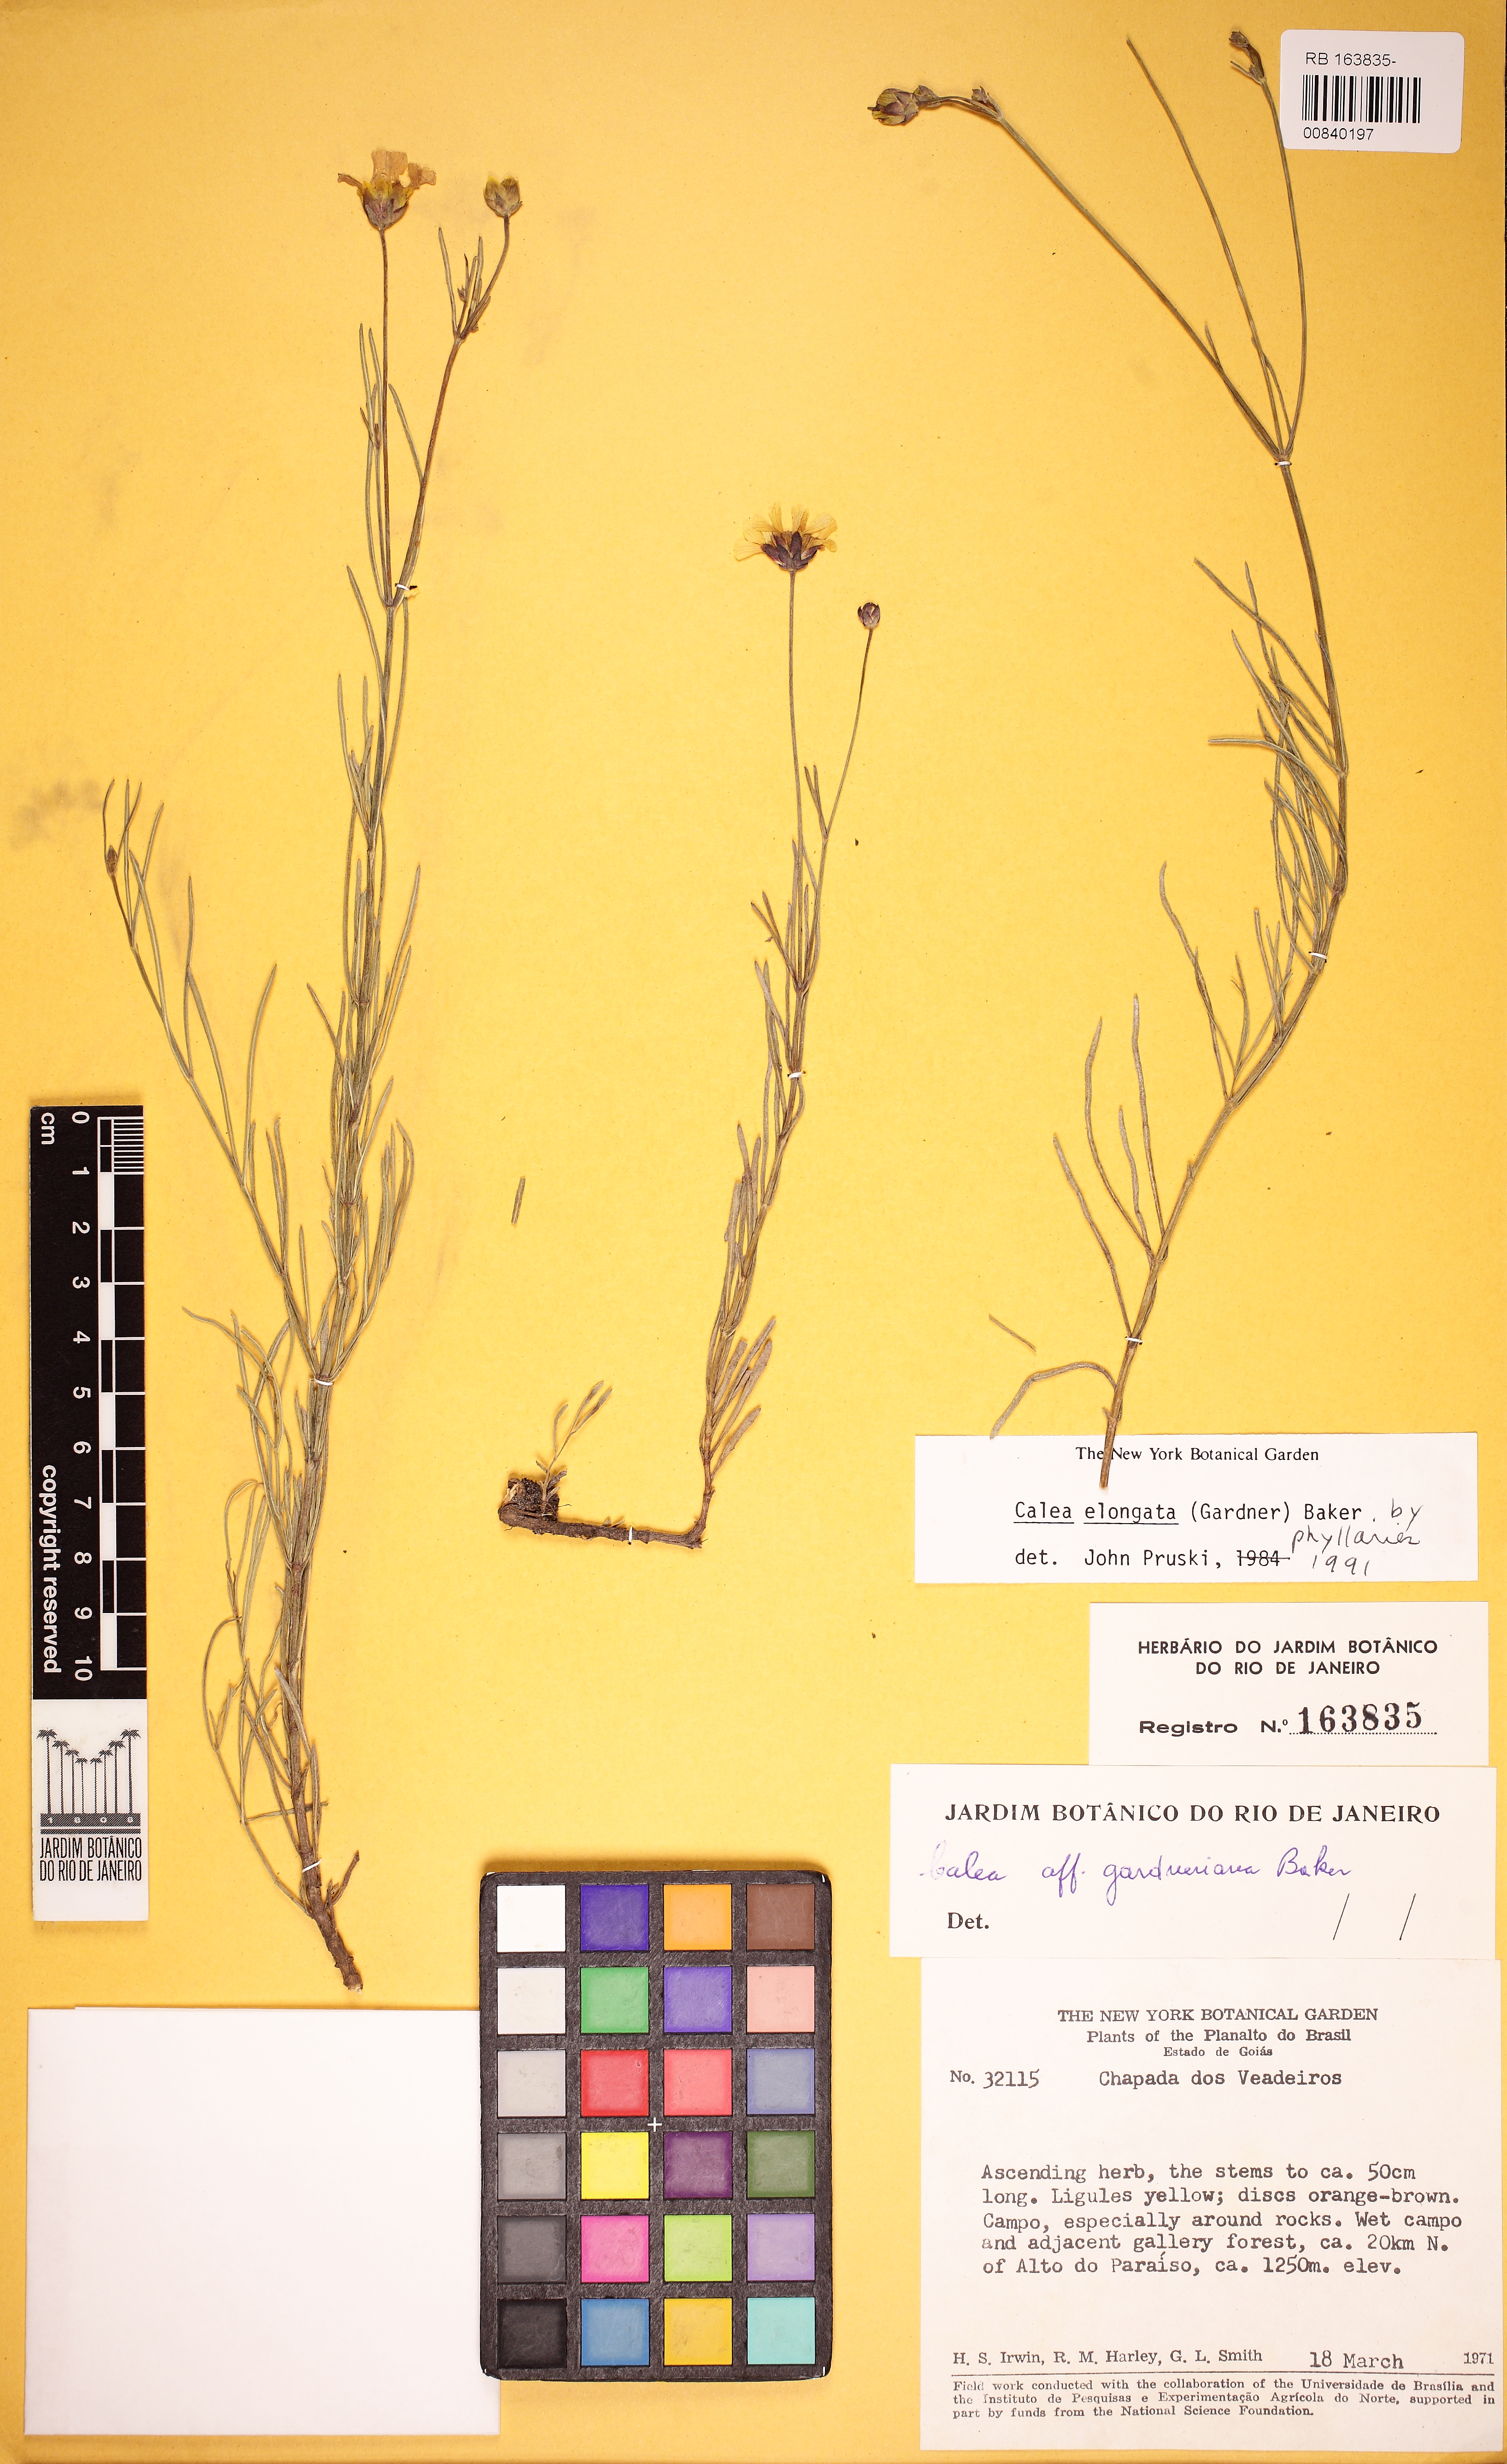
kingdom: Plantae
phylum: Tracheophyta
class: Magnoliopsida
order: Asterales
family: Asteraceae
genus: Calea
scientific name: Calea elongata
